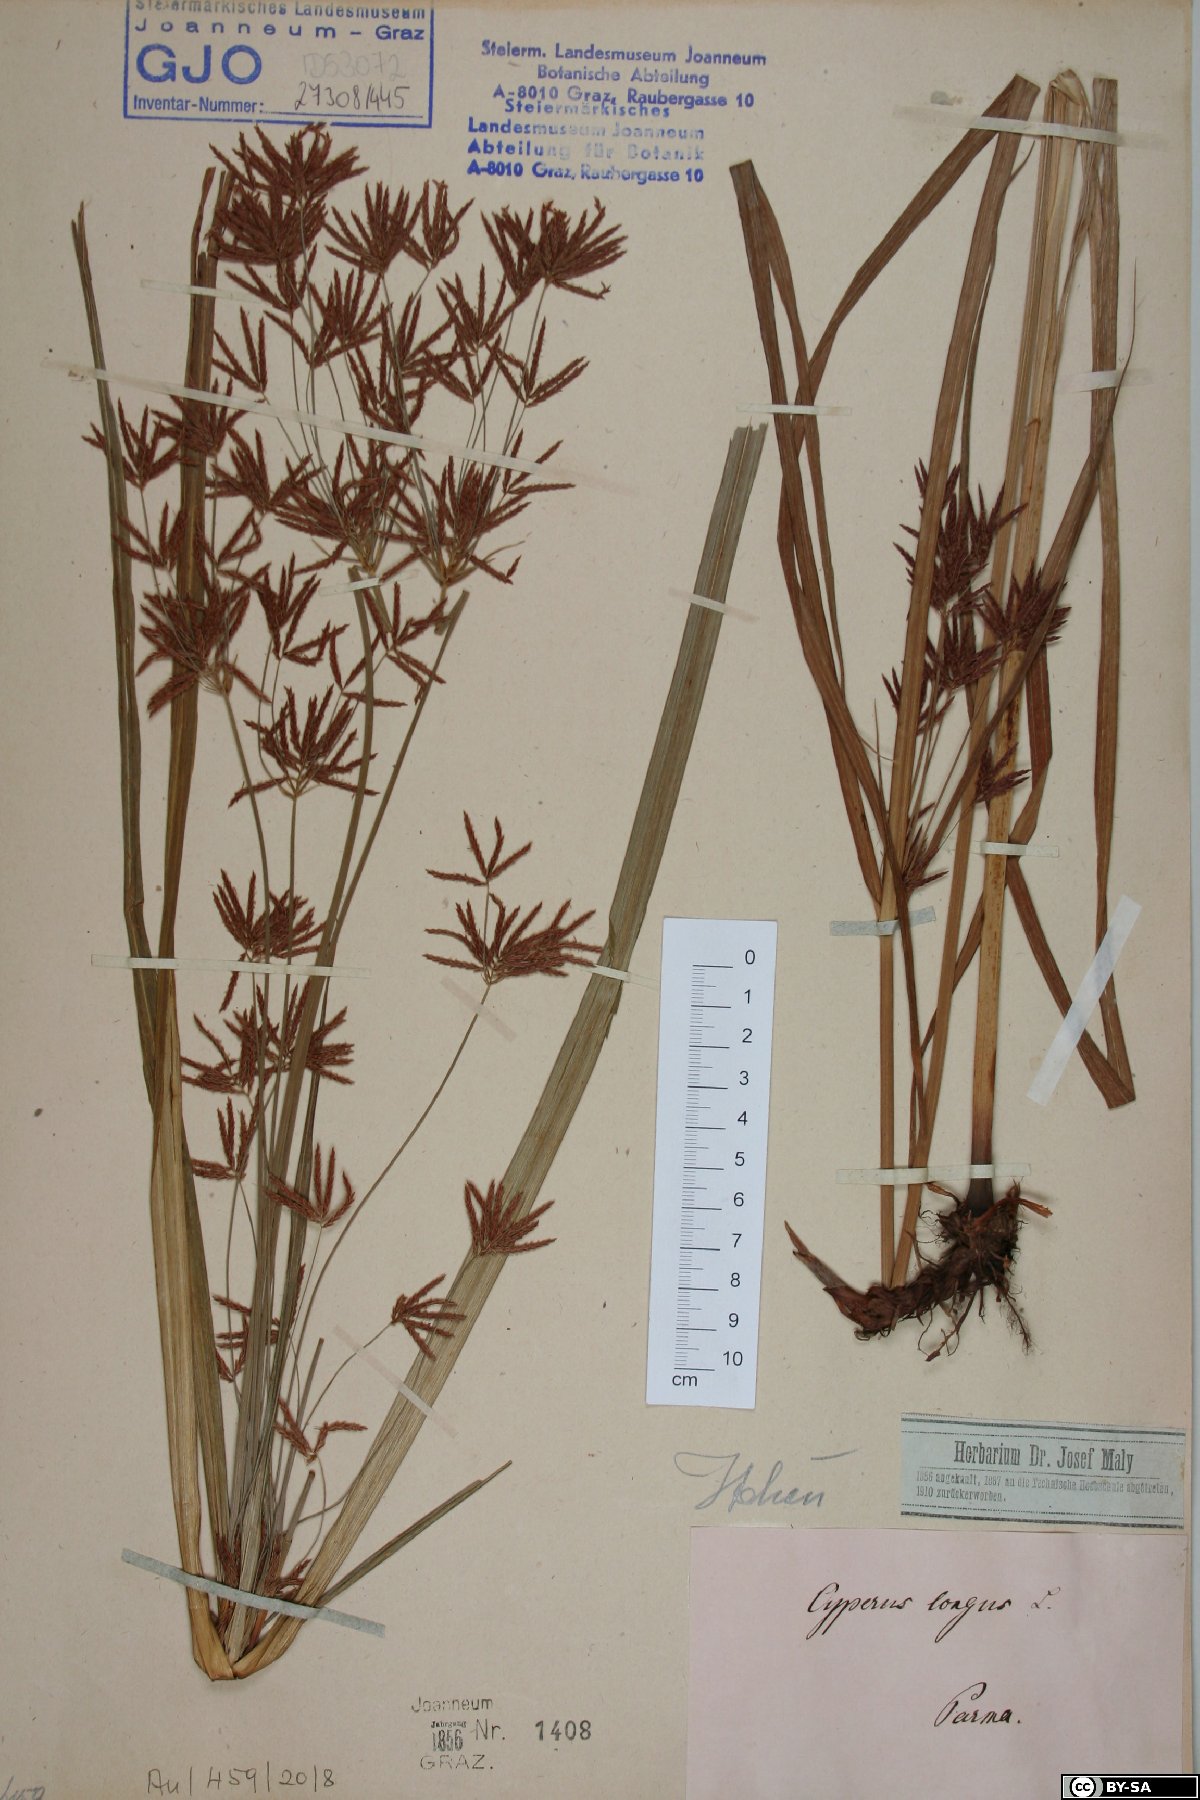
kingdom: Plantae
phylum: Tracheophyta
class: Liliopsida
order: Poales
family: Cyperaceae
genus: Cyperus
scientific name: Cyperus longus
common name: Galingale
